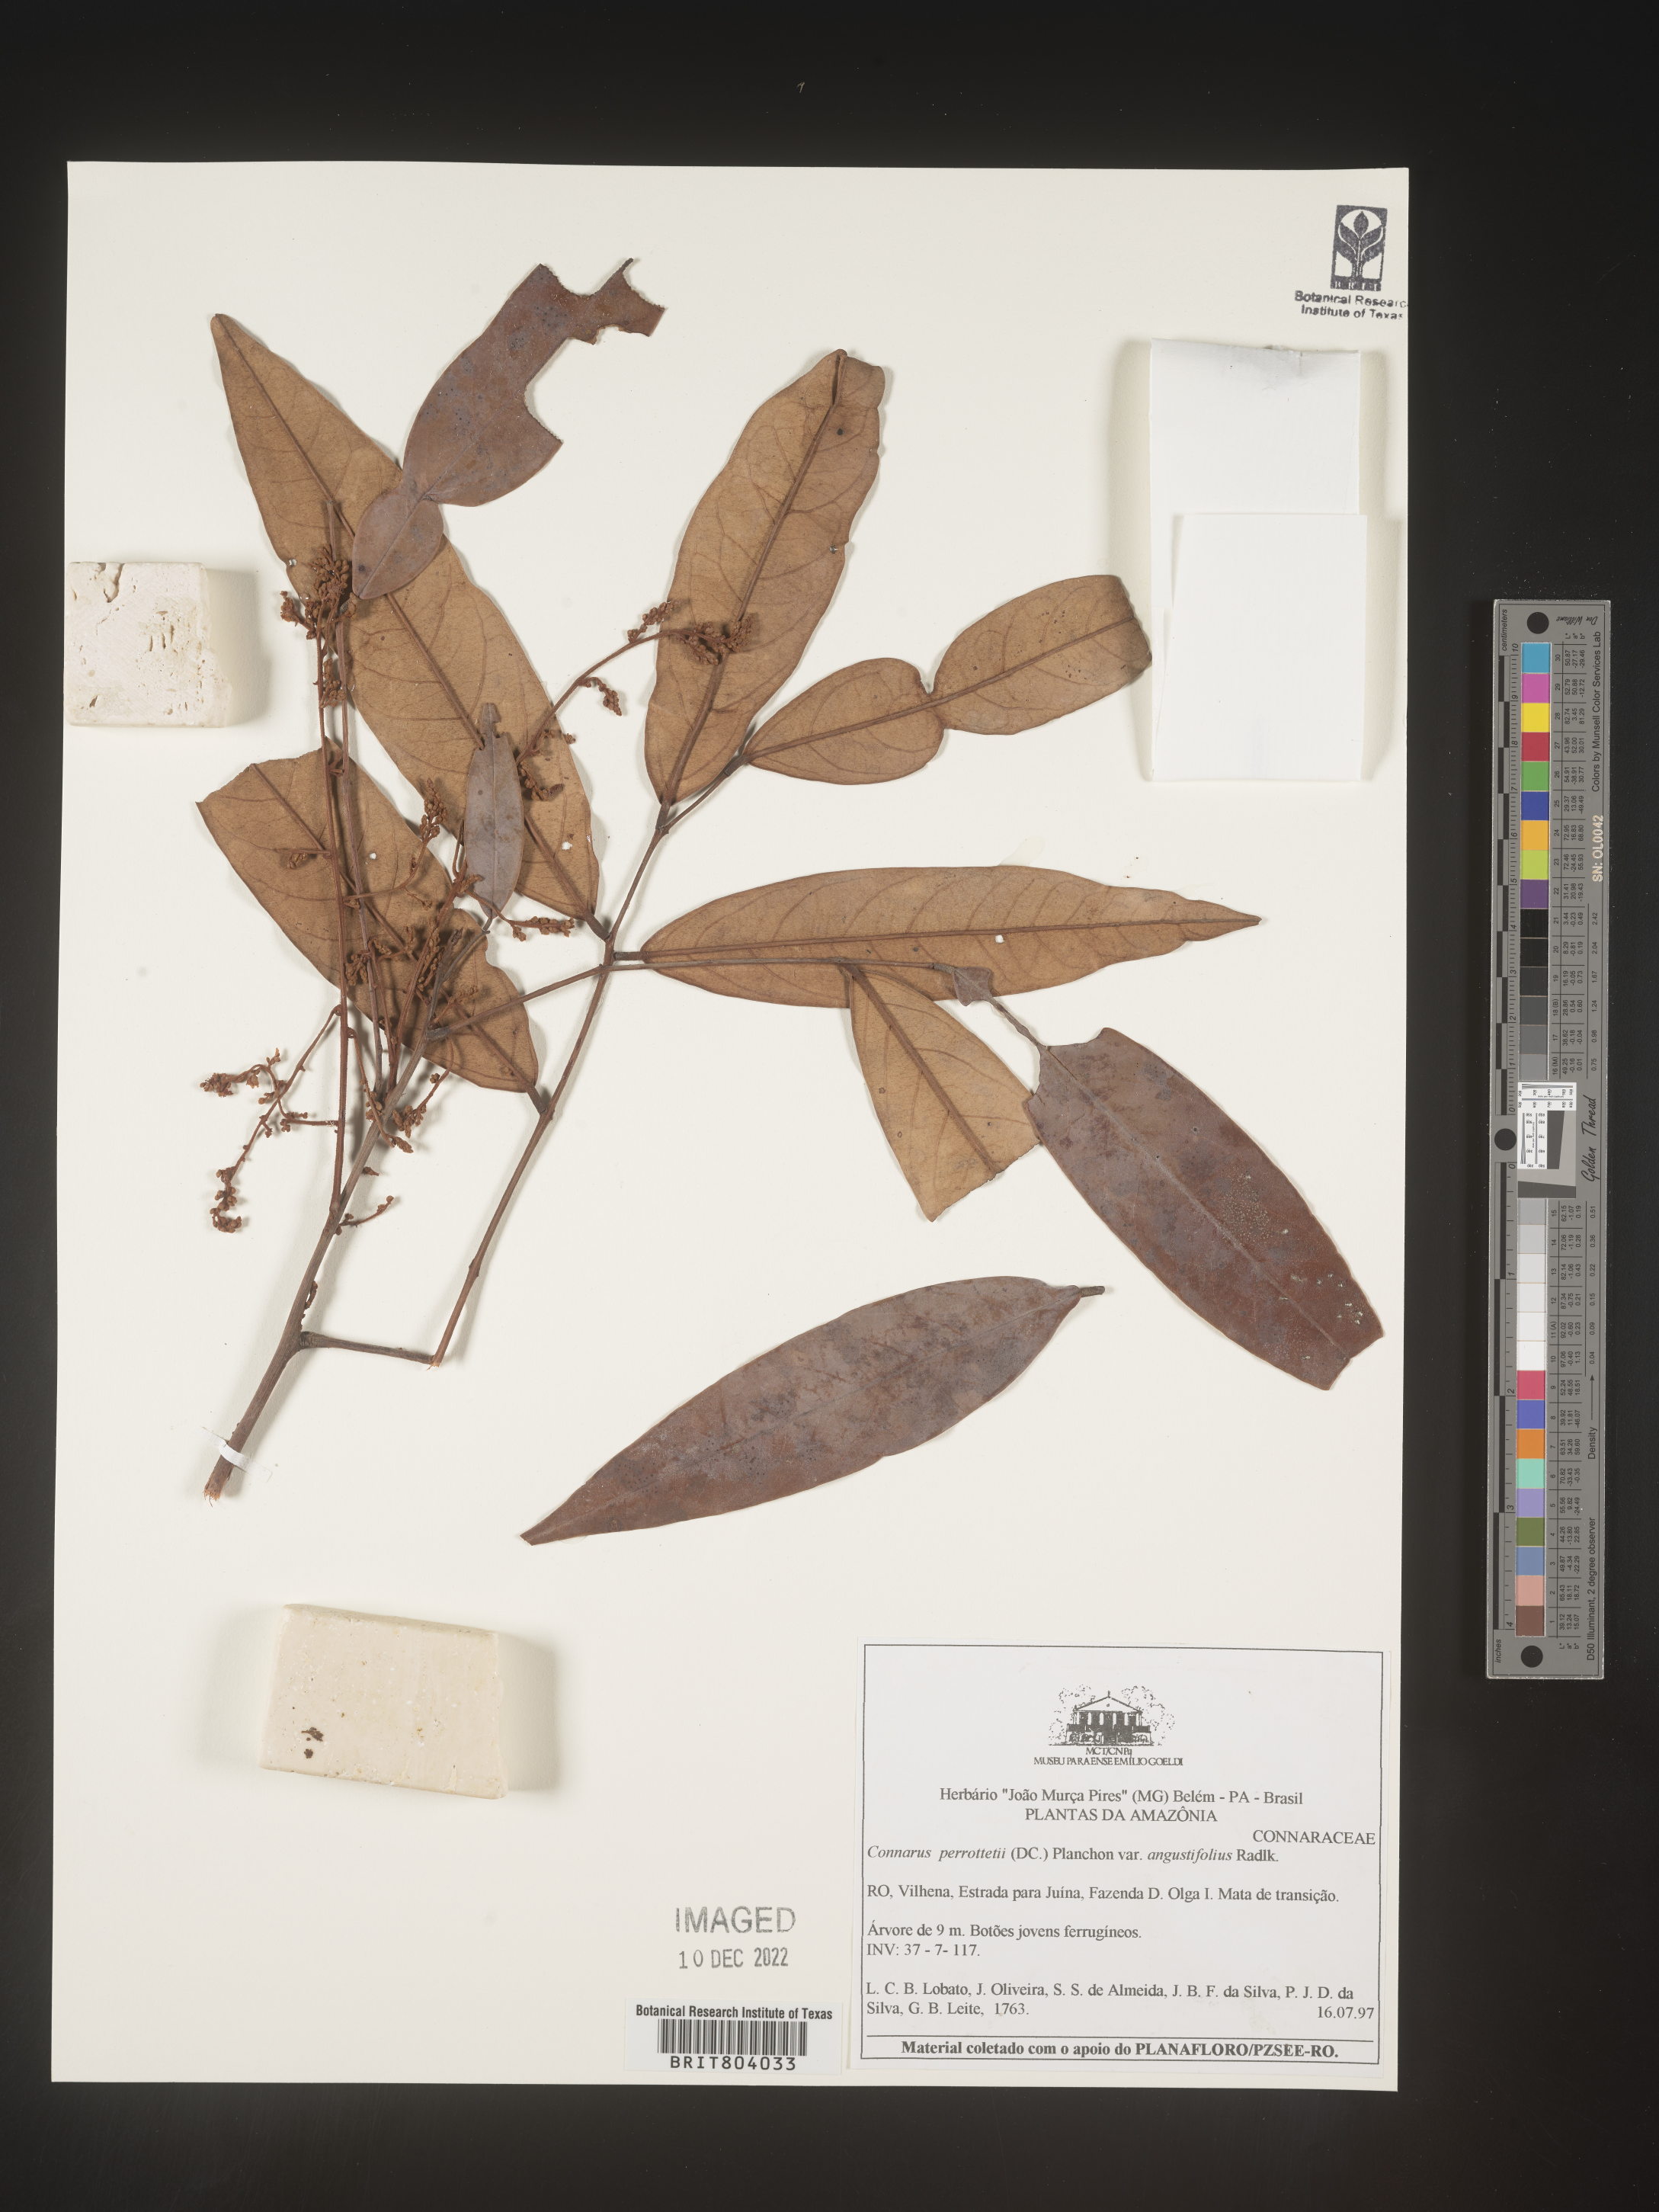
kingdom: Plantae
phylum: Tracheophyta
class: Magnoliopsida
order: Oxalidales
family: Connaraceae
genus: Connarus
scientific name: Connarus
